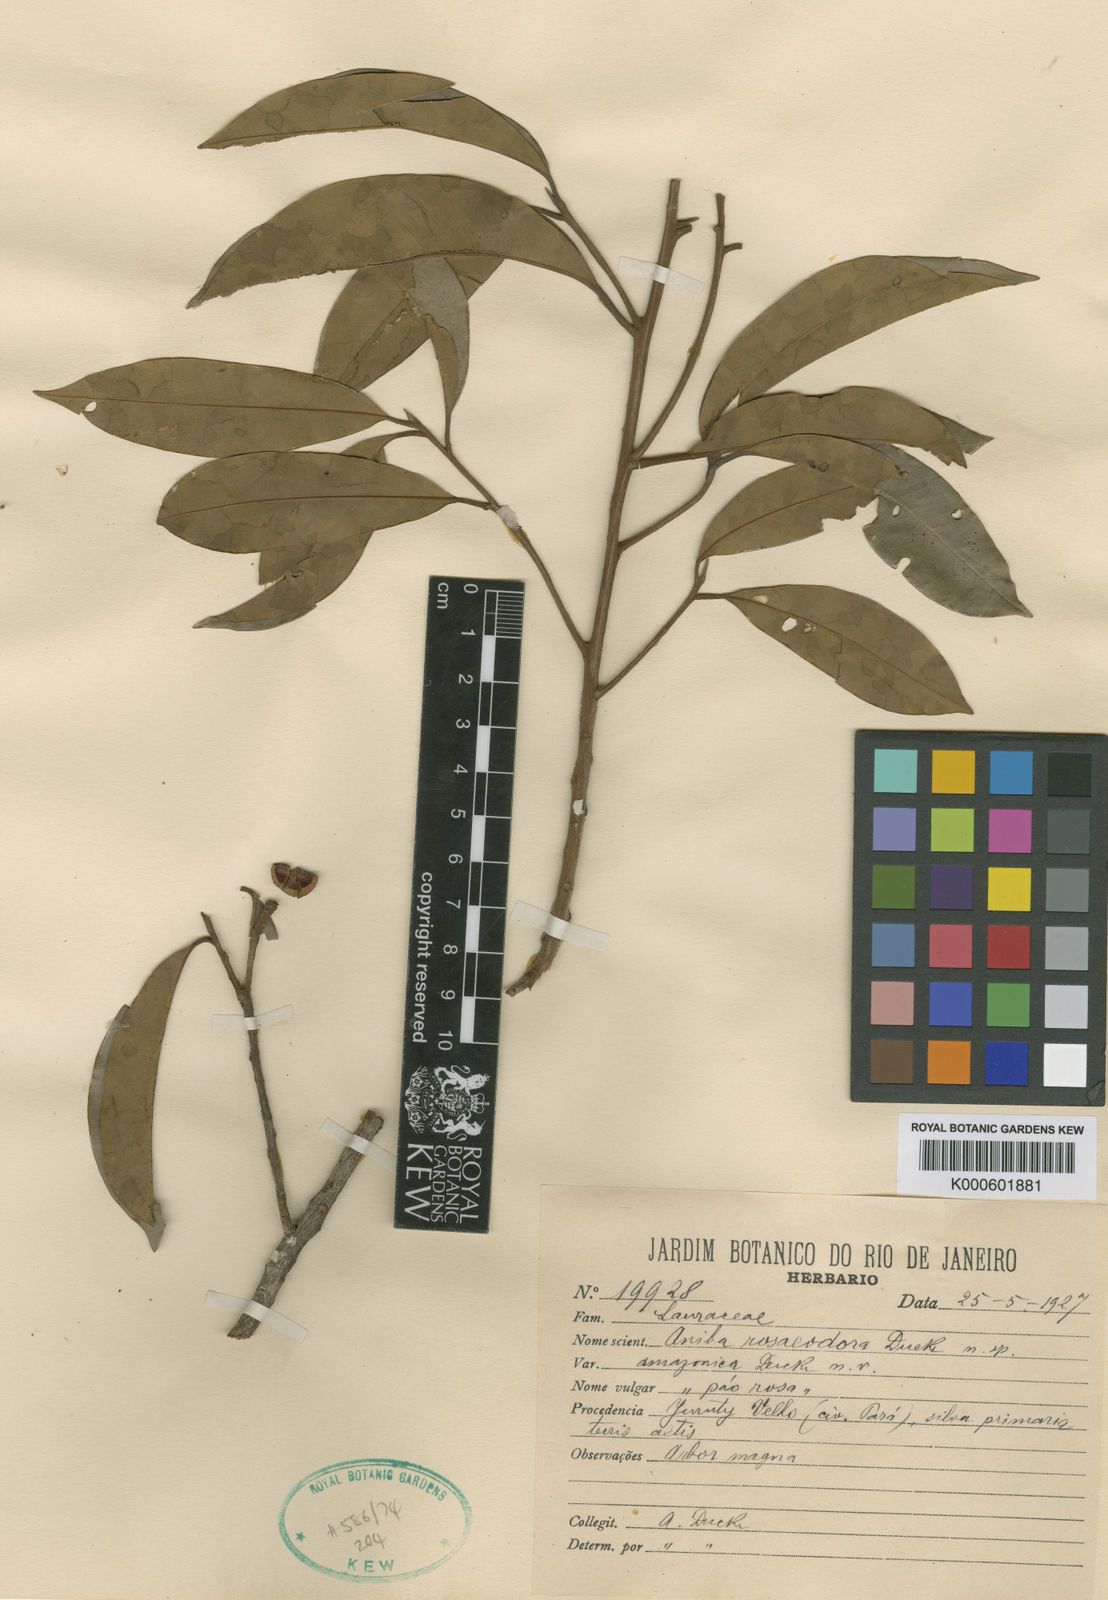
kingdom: Plantae
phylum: Tracheophyta
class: Magnoliopsida
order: Laurales
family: Lauraceae
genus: Aniba
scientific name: Aniba rosaeodora
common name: Brazilian rosewood
